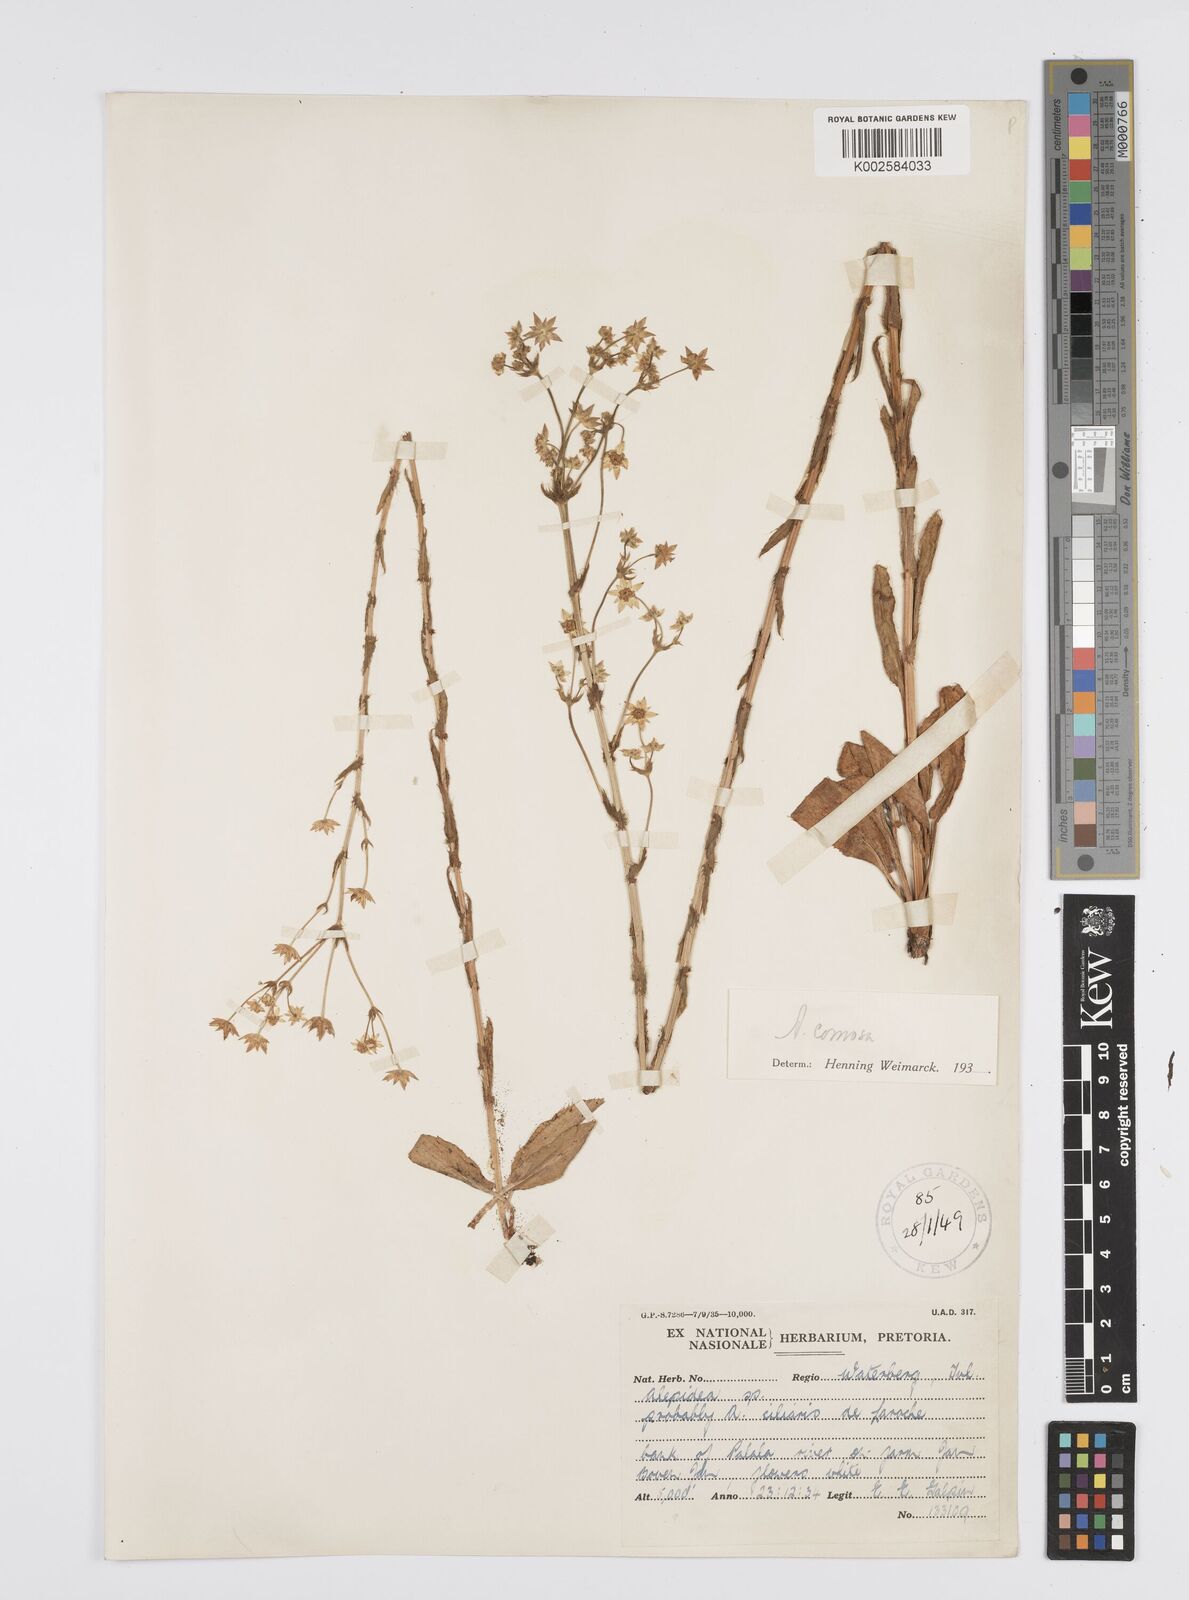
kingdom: Plantae
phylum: Tracheophyta
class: Magnoliopsida
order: Apiales
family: Apiaceae
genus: Alepidea
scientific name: Alepidea
